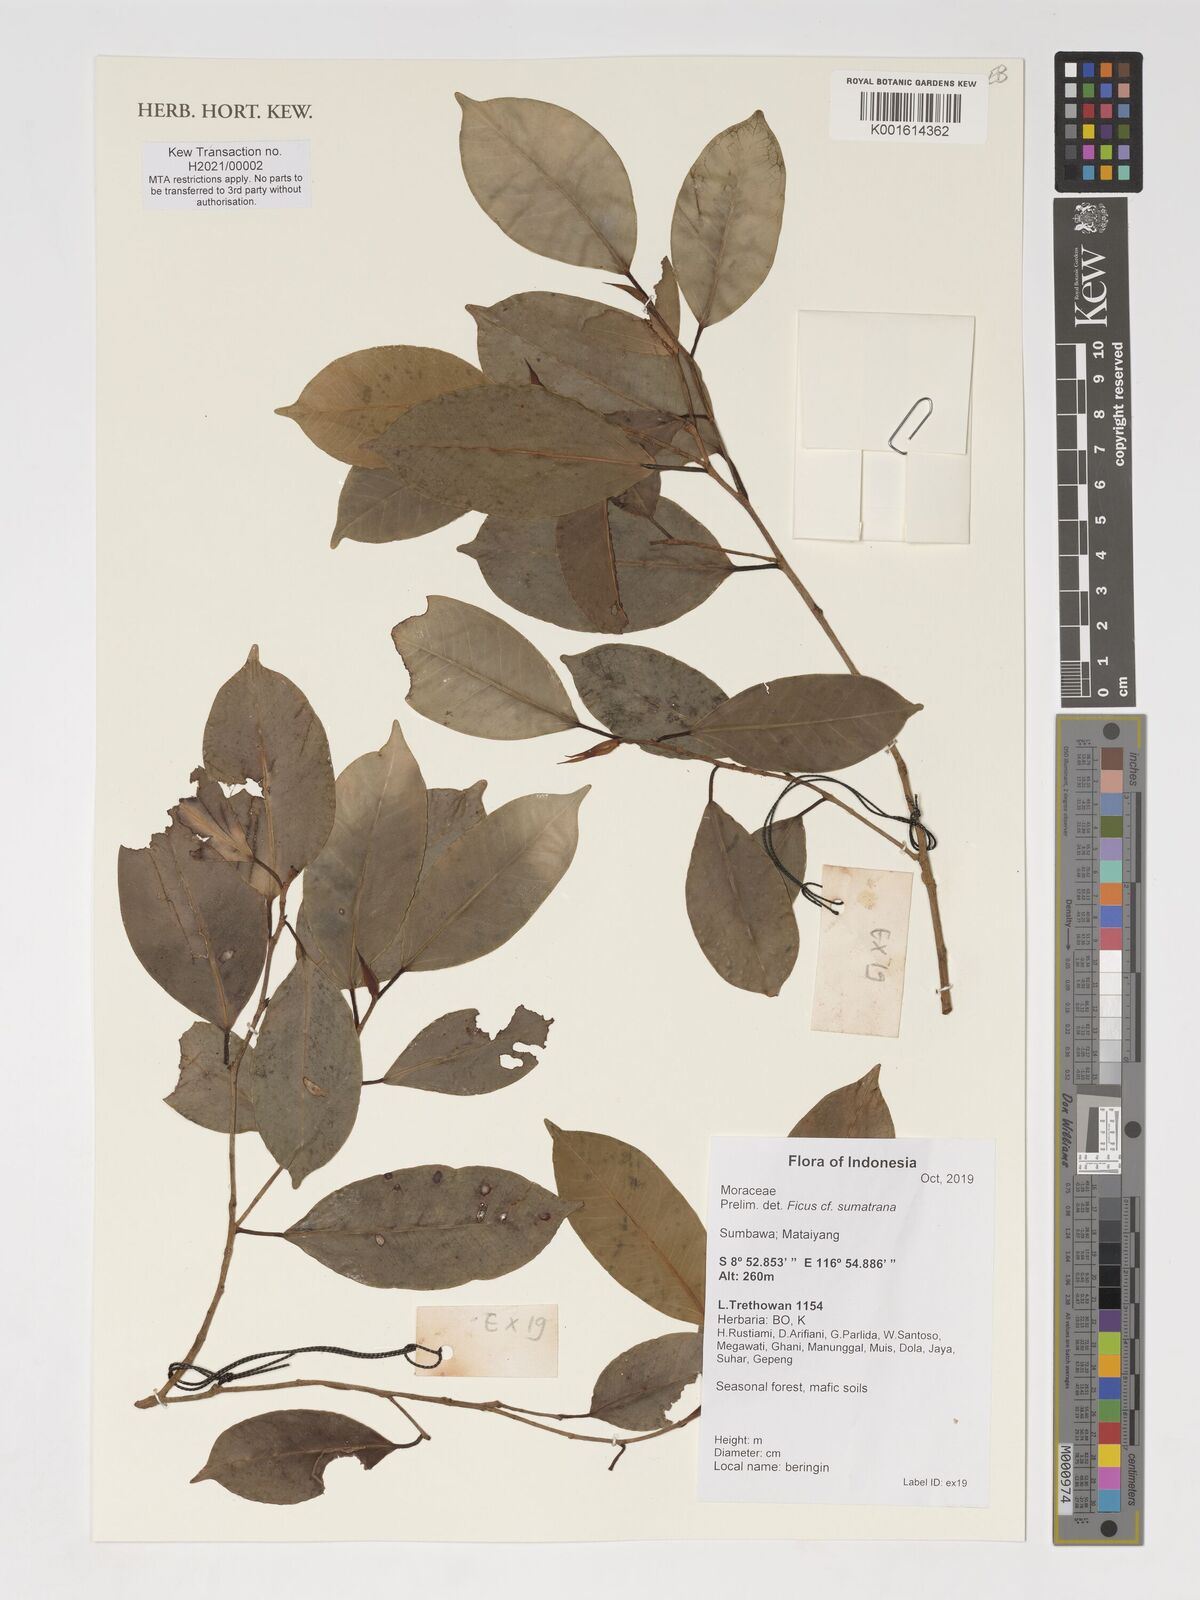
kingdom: Plantae
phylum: Tracheophyta
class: Magnoliopsida
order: Rosales
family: Moraceae
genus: Ficus
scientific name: Ficus sumatrana
